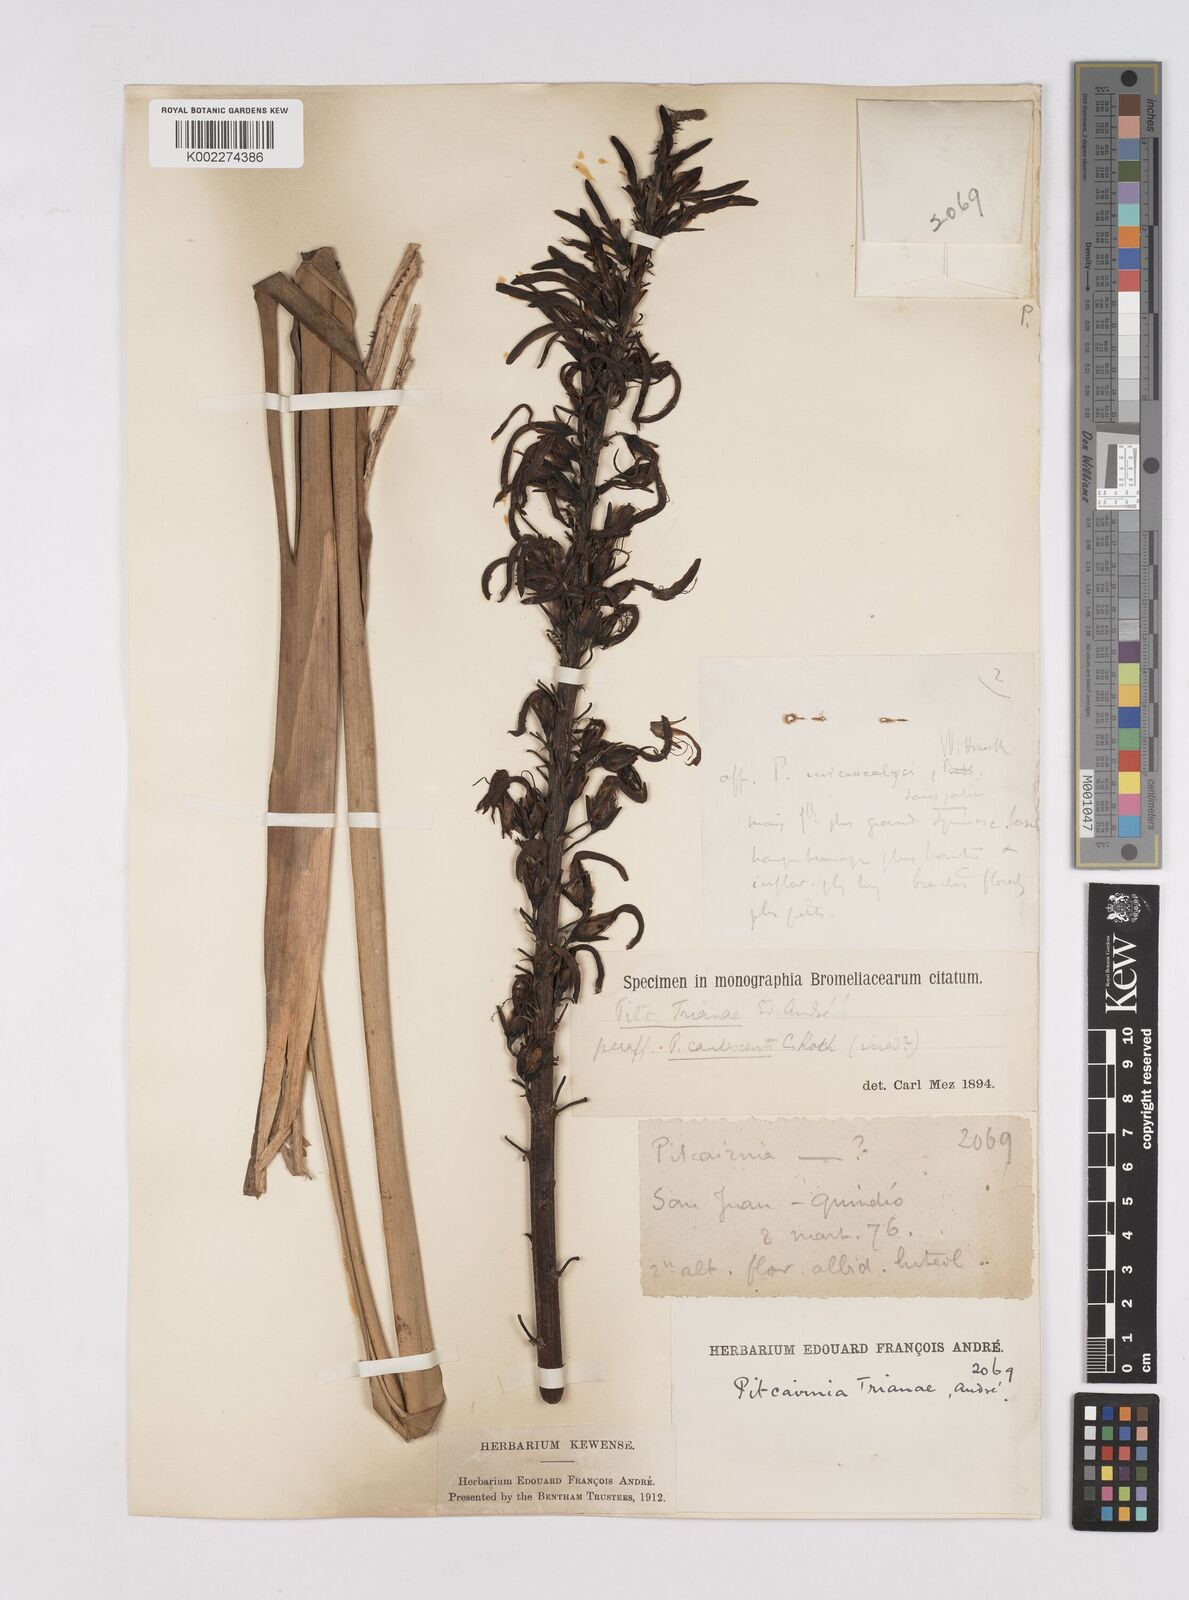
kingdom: Plantae
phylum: Tracheophyta
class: Liliopsida
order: Poales
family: Bromeliaceae
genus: Pitcairnia
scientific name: Pitcairnia trianae
